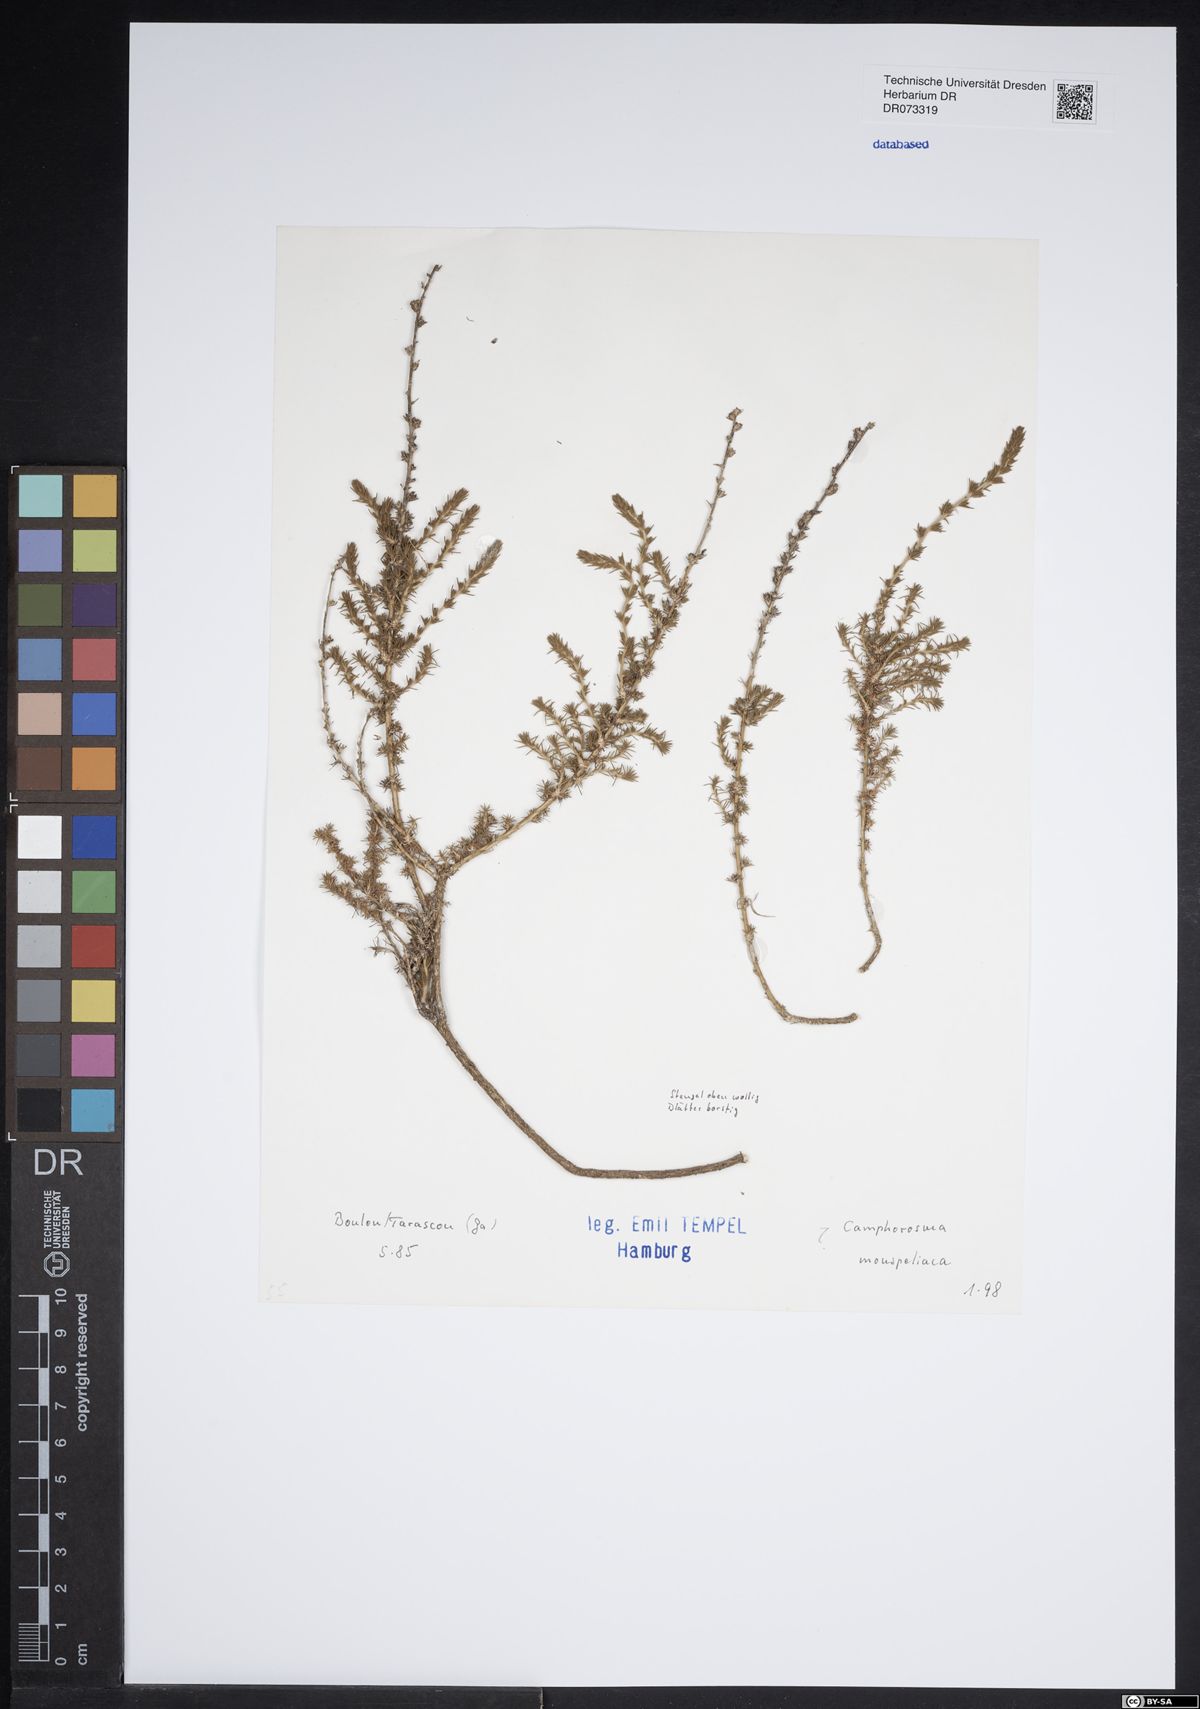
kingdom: Plantae
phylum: Tracheophyta
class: Magnoliopsida
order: Caryophyllales
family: Amaranthaceae
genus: Camphorosma
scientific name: Camphorosma monspeliaca
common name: Camphorfume
